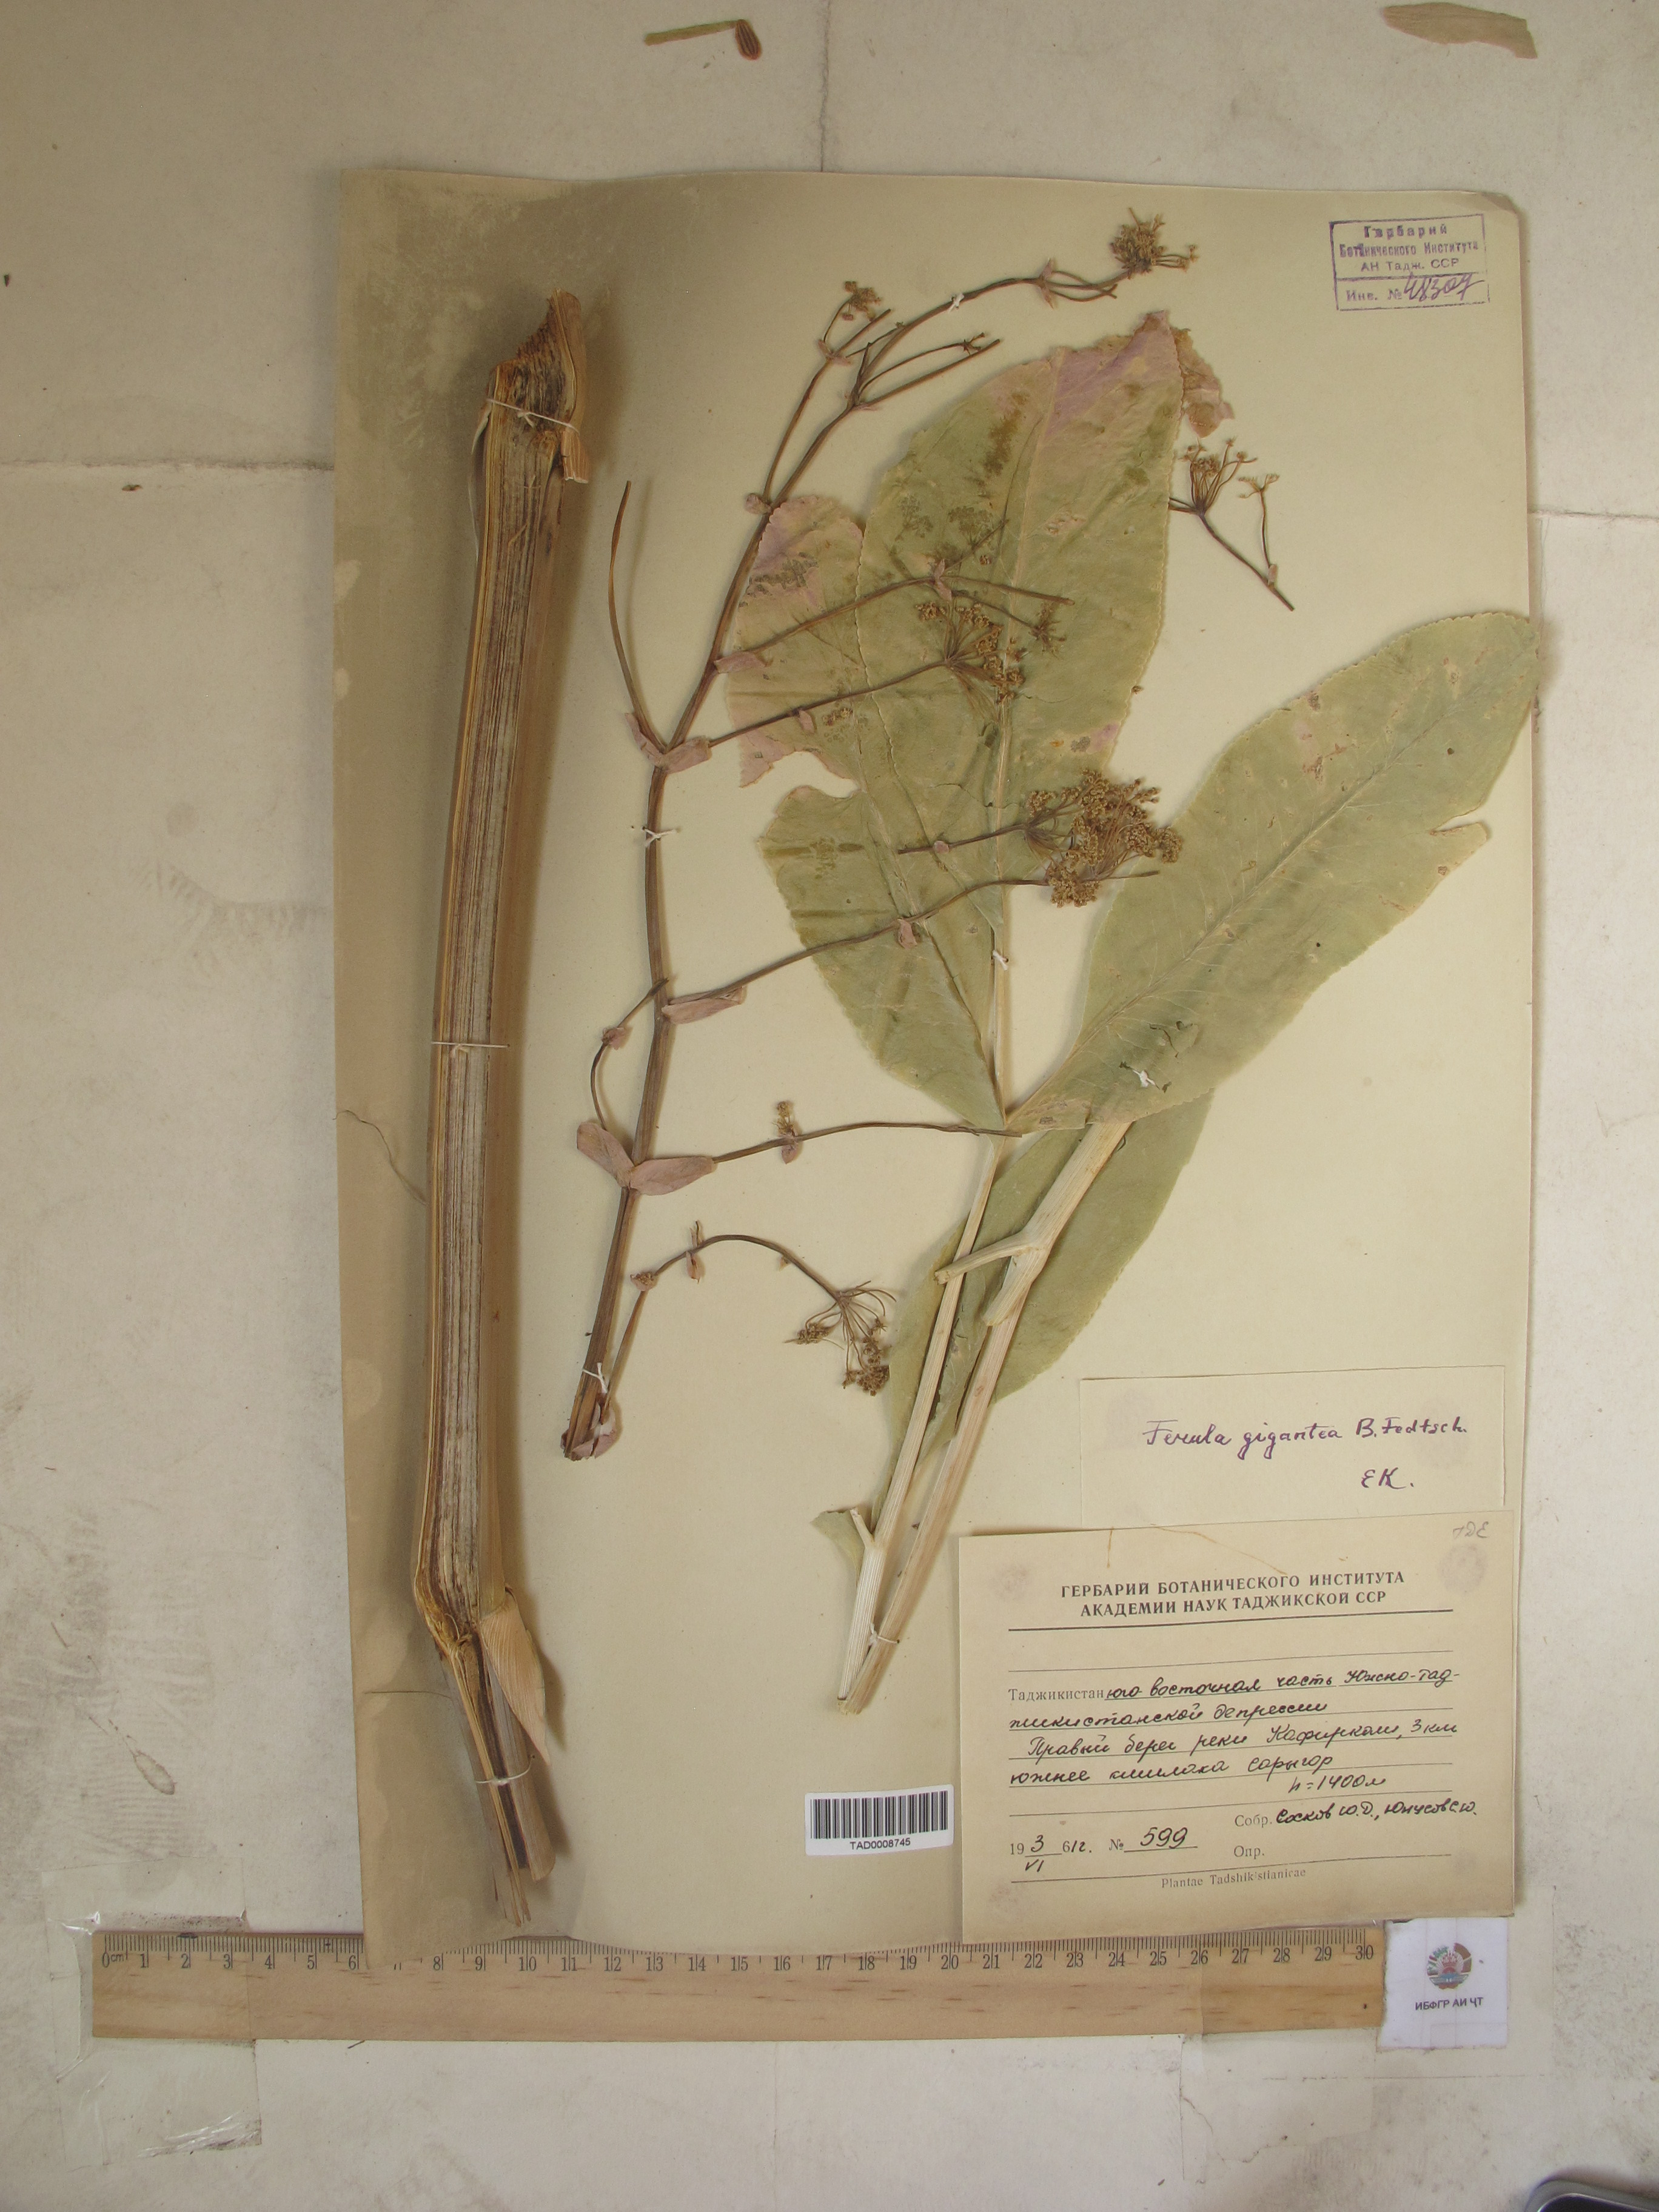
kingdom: Plantae
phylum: Tracheophyta
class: Magnoliopsida
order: Apiales
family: Apiaceae
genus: Ferula
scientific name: Ferula gigantea
